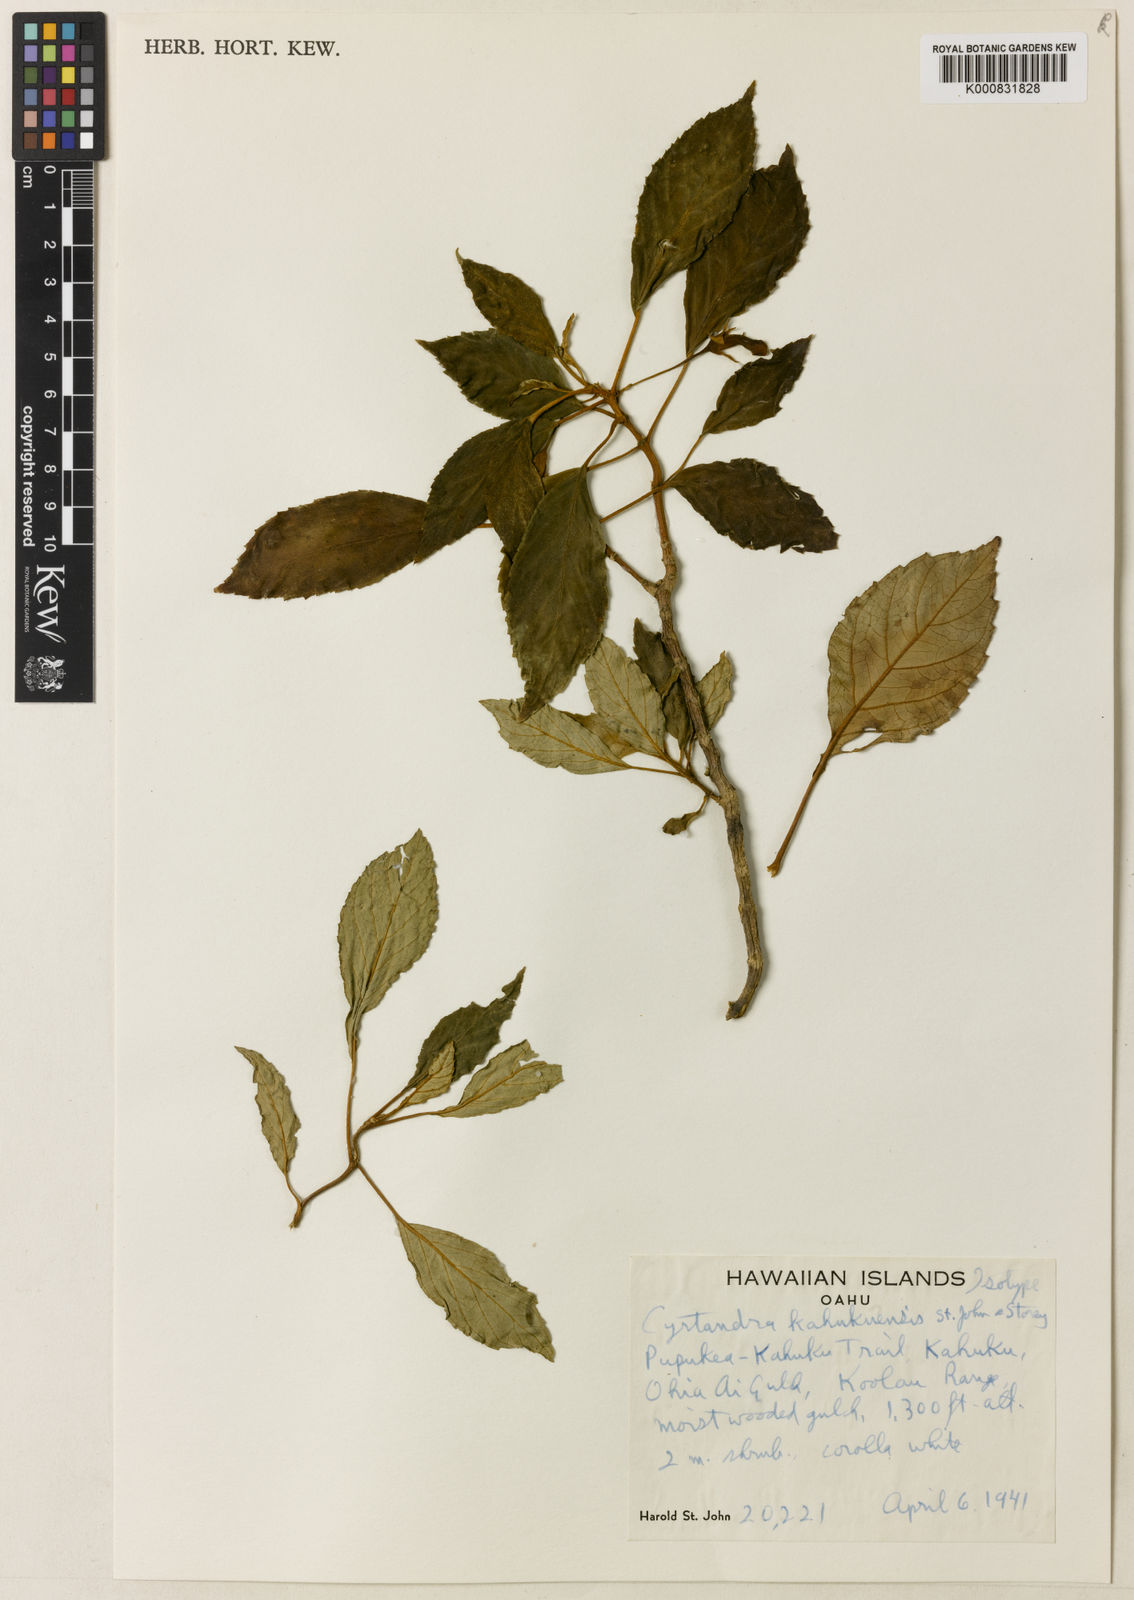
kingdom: Plantae
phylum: Tracheophyta
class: Magnoliopsida
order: Lamiales
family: Gesneriaceae
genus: Cyrtandra
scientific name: Cyrtandra rockii
